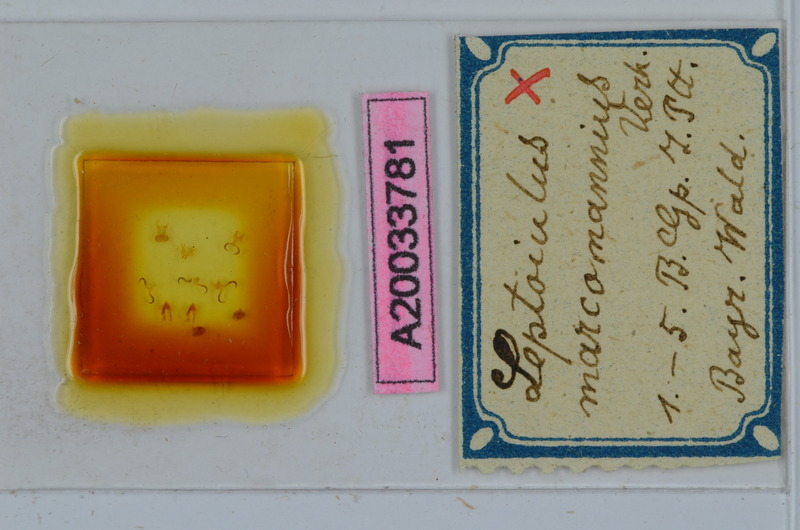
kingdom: Animalia
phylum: Arthropoda
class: Diplopoda
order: Julida
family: Julidae
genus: Leptoiulus
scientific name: Leptoiulus noricus
